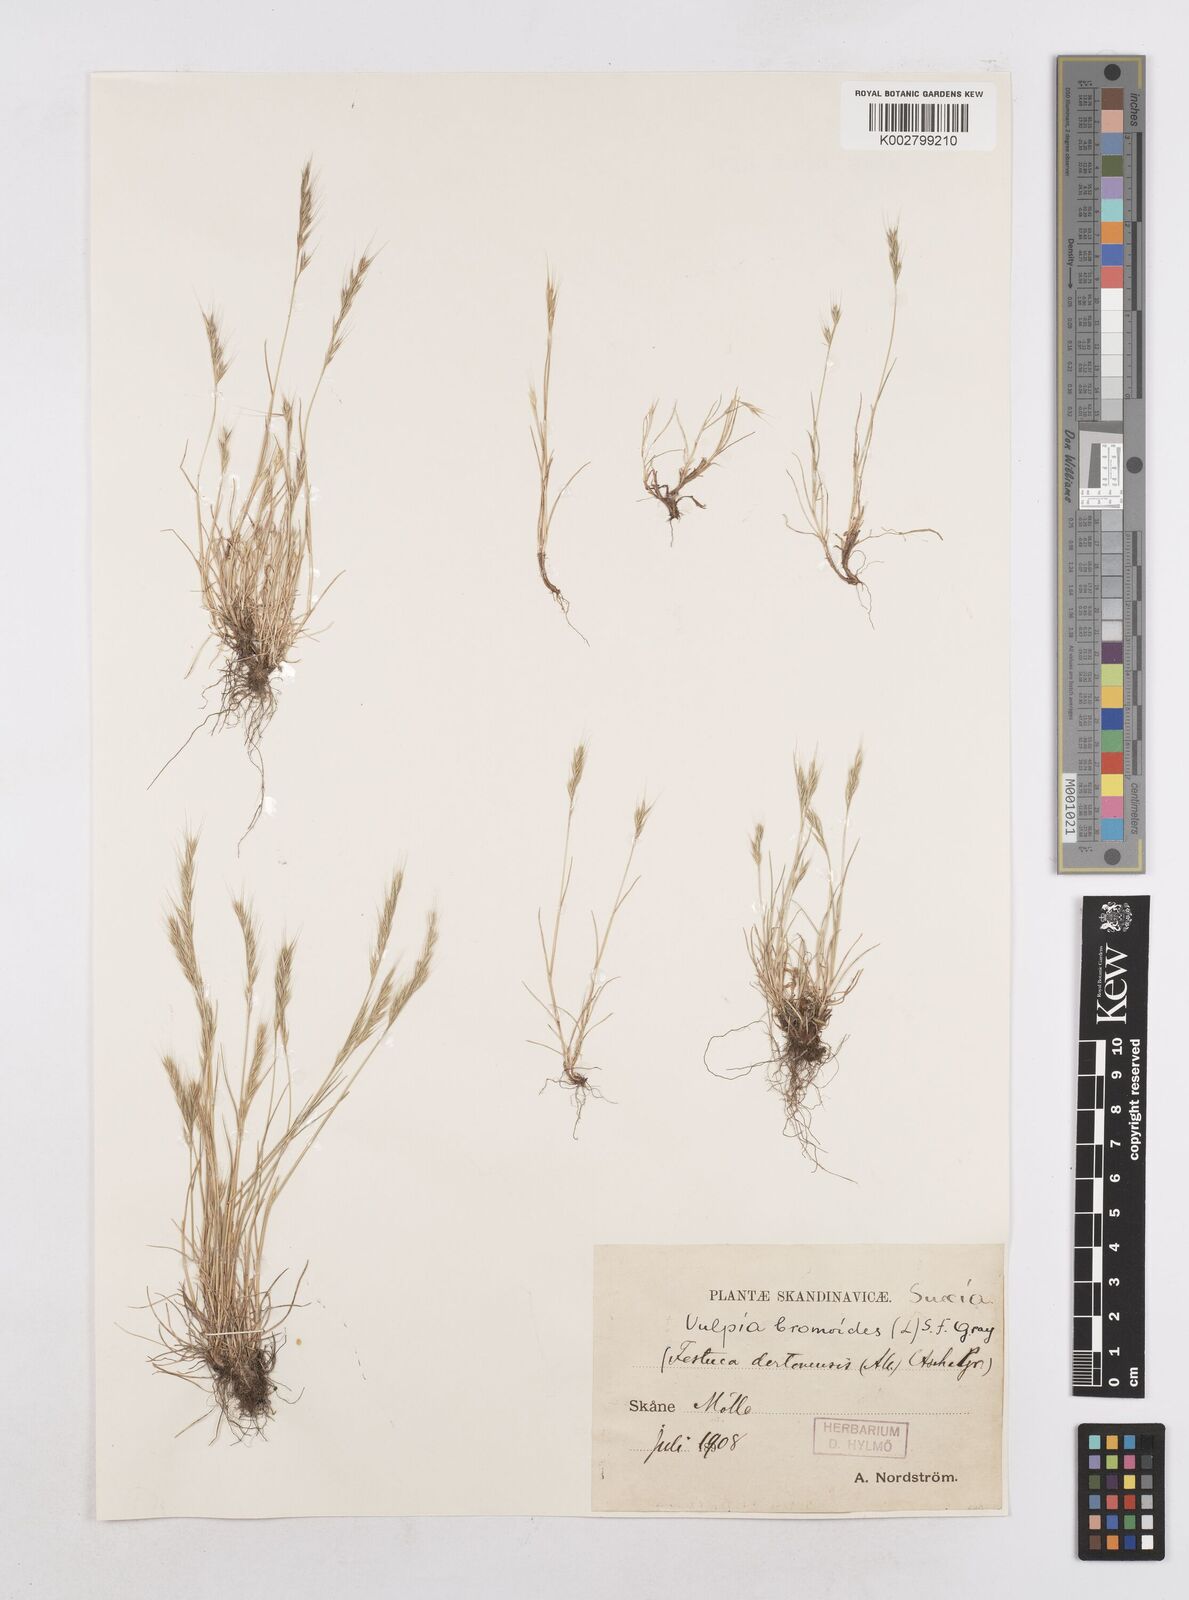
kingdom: Plantae
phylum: Tracheophyta
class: Liliopsida
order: Poales
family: Poaceae
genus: Festuca
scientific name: Festuca bromoides
